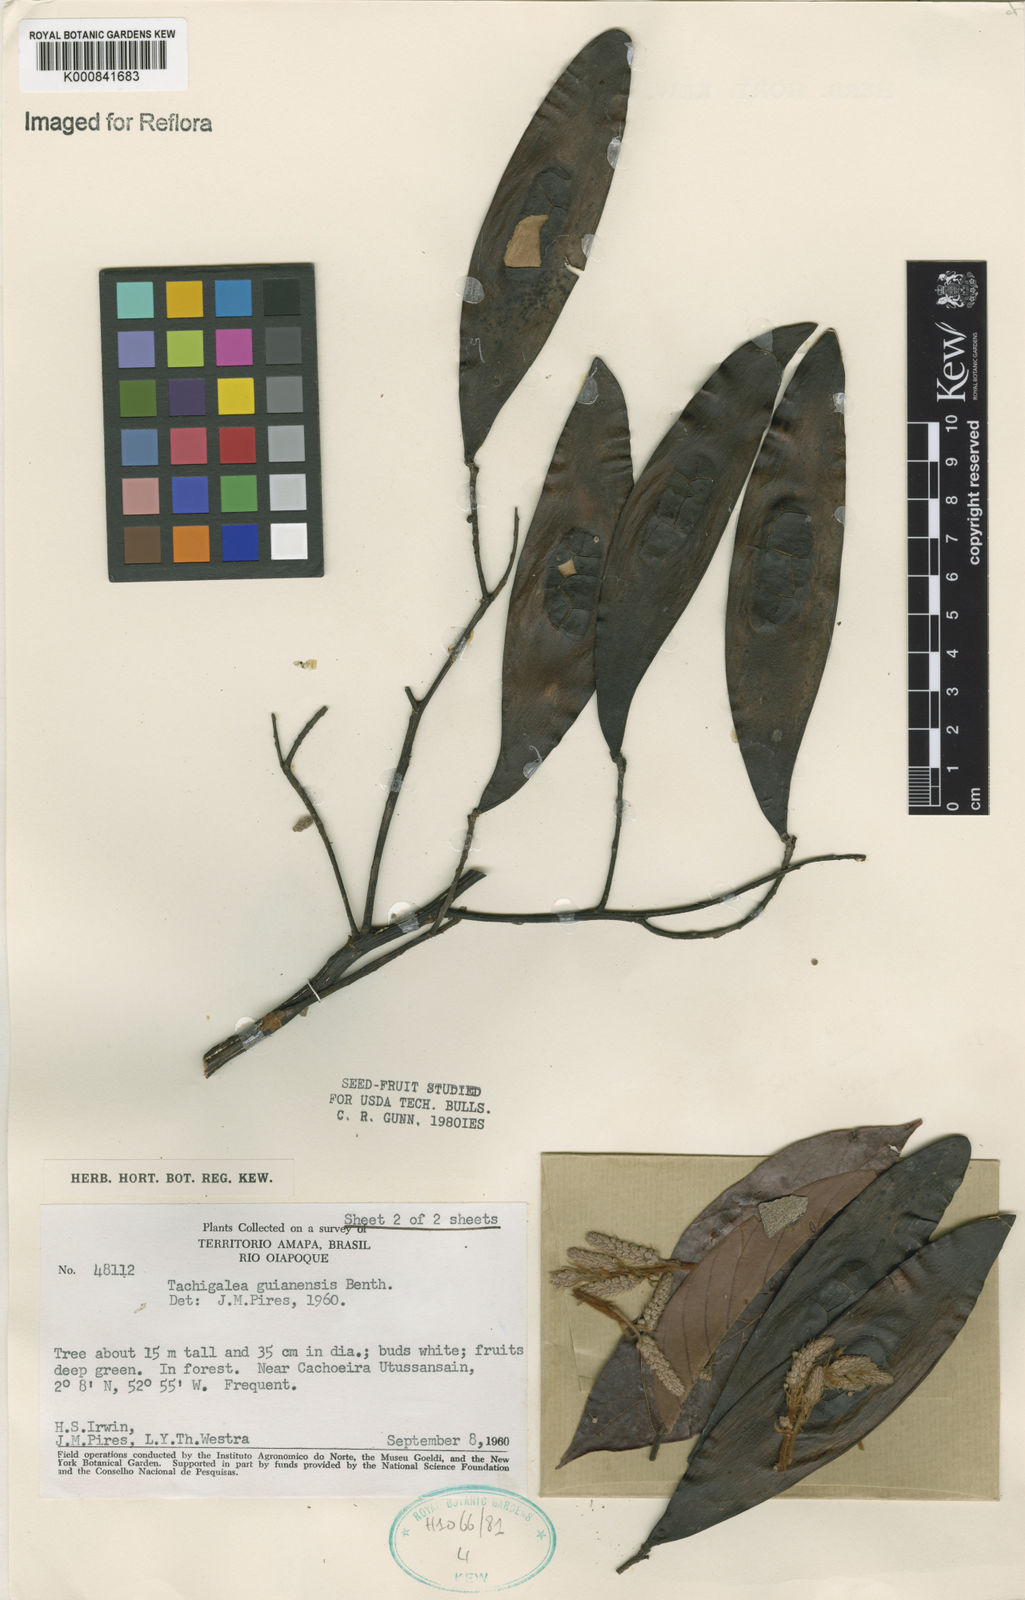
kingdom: Plantae
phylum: Tracheophyta
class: Magnoliopsida
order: Fabales
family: Fabaceae
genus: Tachigali
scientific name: Tachigali guianensis
